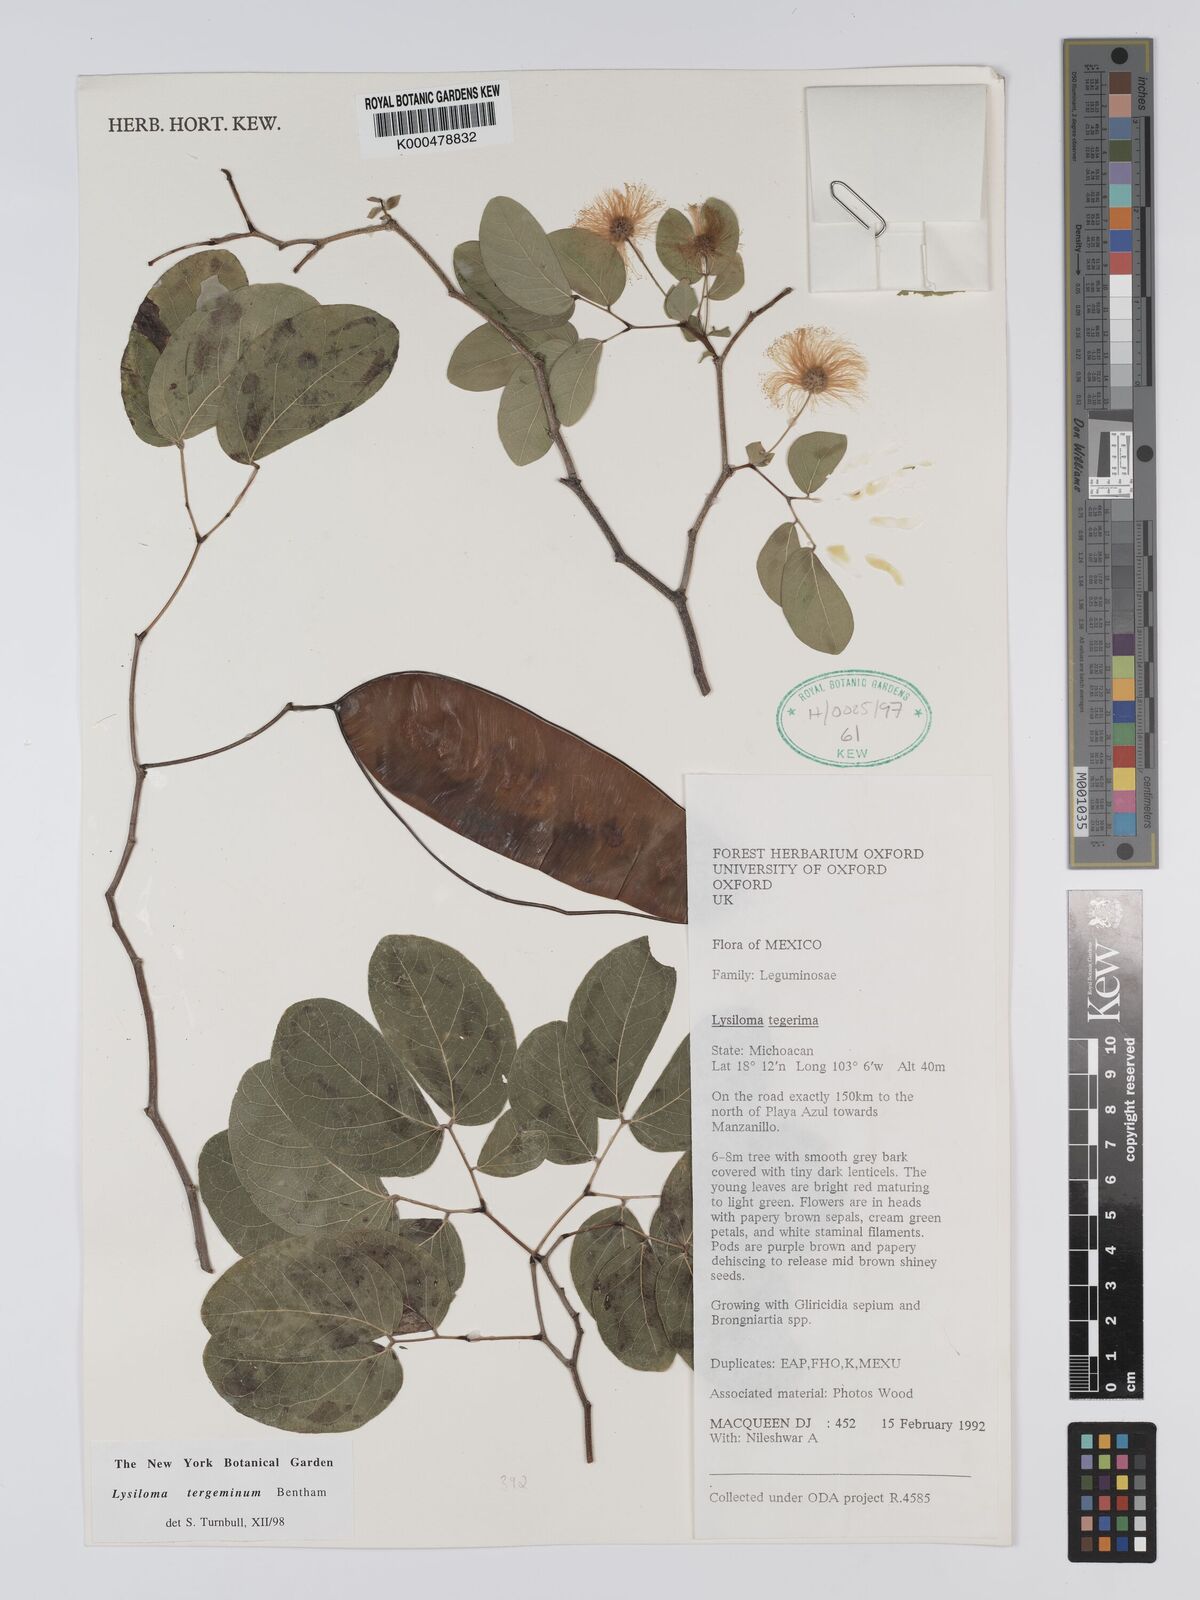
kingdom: Plantae
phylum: Tracheophyta
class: Magnoliopsida
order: Fabales
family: Fabaceae
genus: Lysiloma
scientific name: Lysiloma tergeminum
